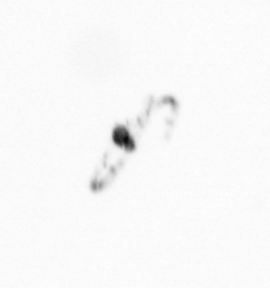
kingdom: Chromista
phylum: Ochrophyta
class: Bacillariophyceae
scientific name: Bacillariophyceae
